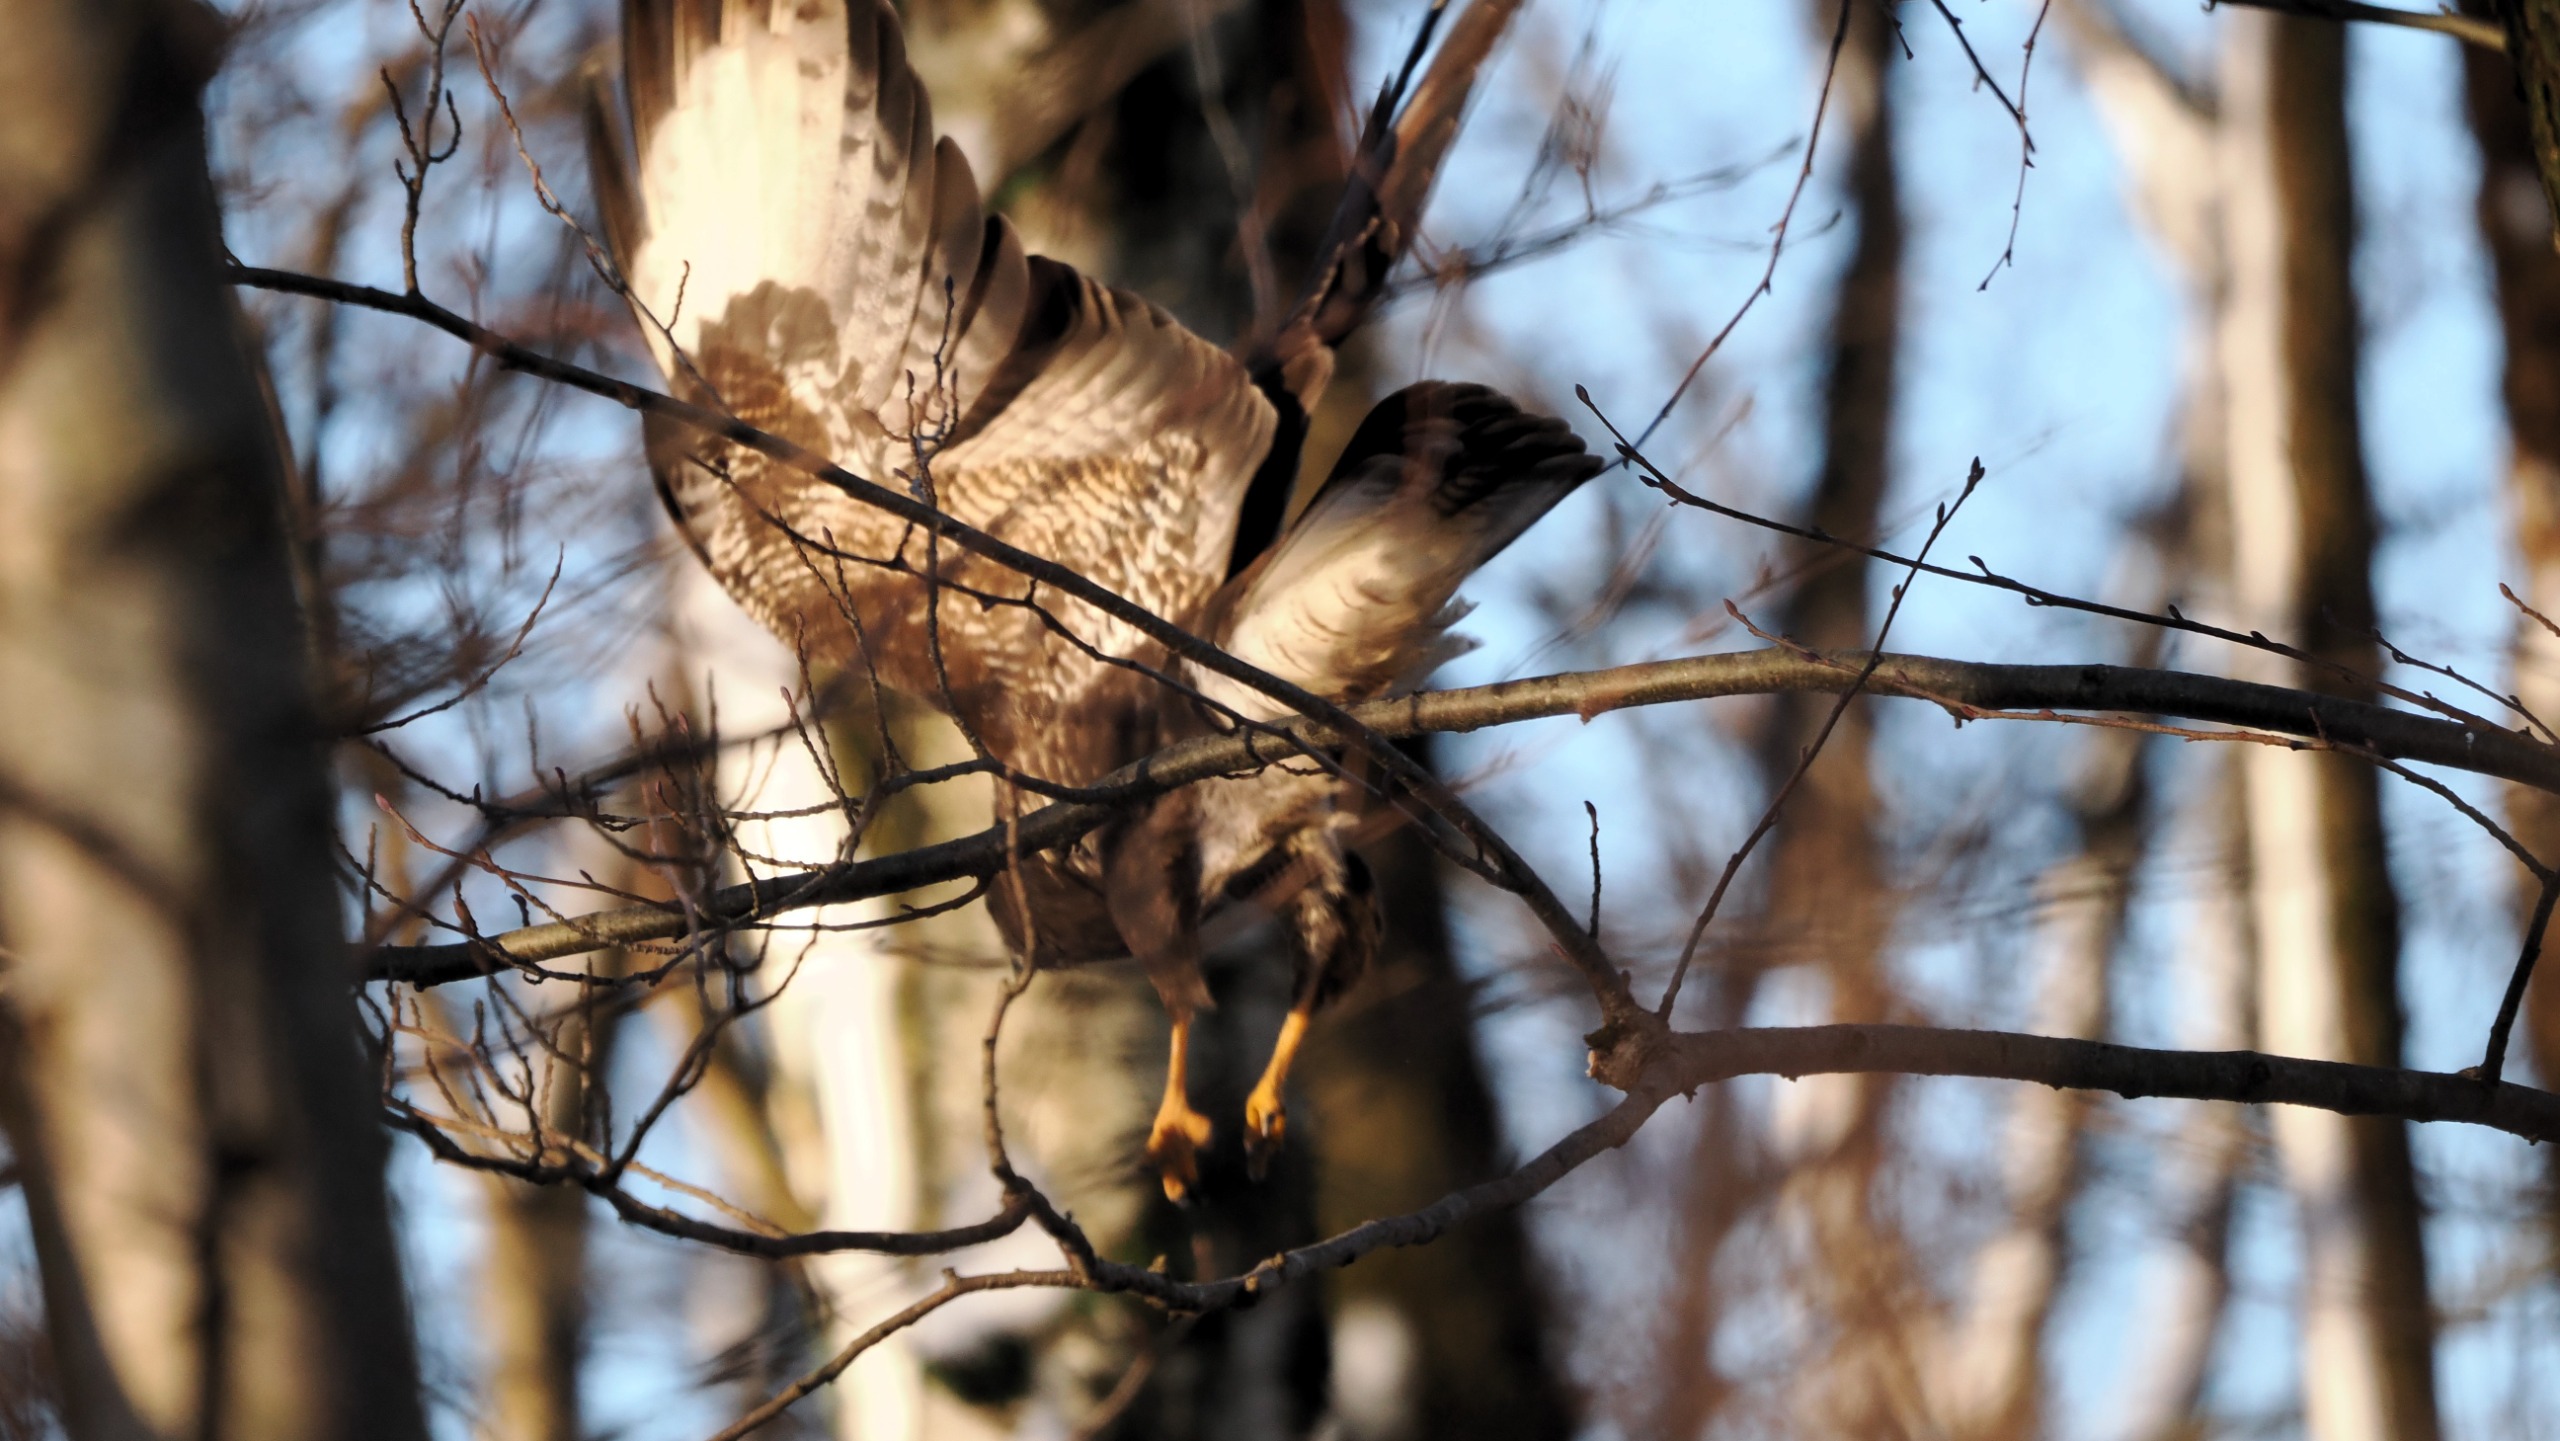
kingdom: Animalia
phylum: Chordata
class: Aves
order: Accipitriformes
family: Accipitridae
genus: Buteo
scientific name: Buteo buteo
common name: Musvåge
